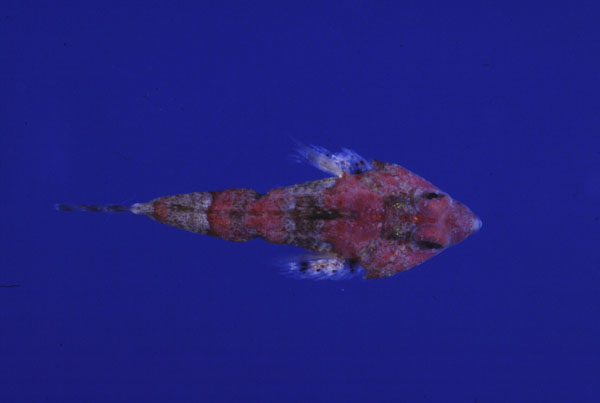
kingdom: Animalia
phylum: Chordata
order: Perciformes
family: Callionymidae
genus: Callionymus
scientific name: Callionymus marleyi
